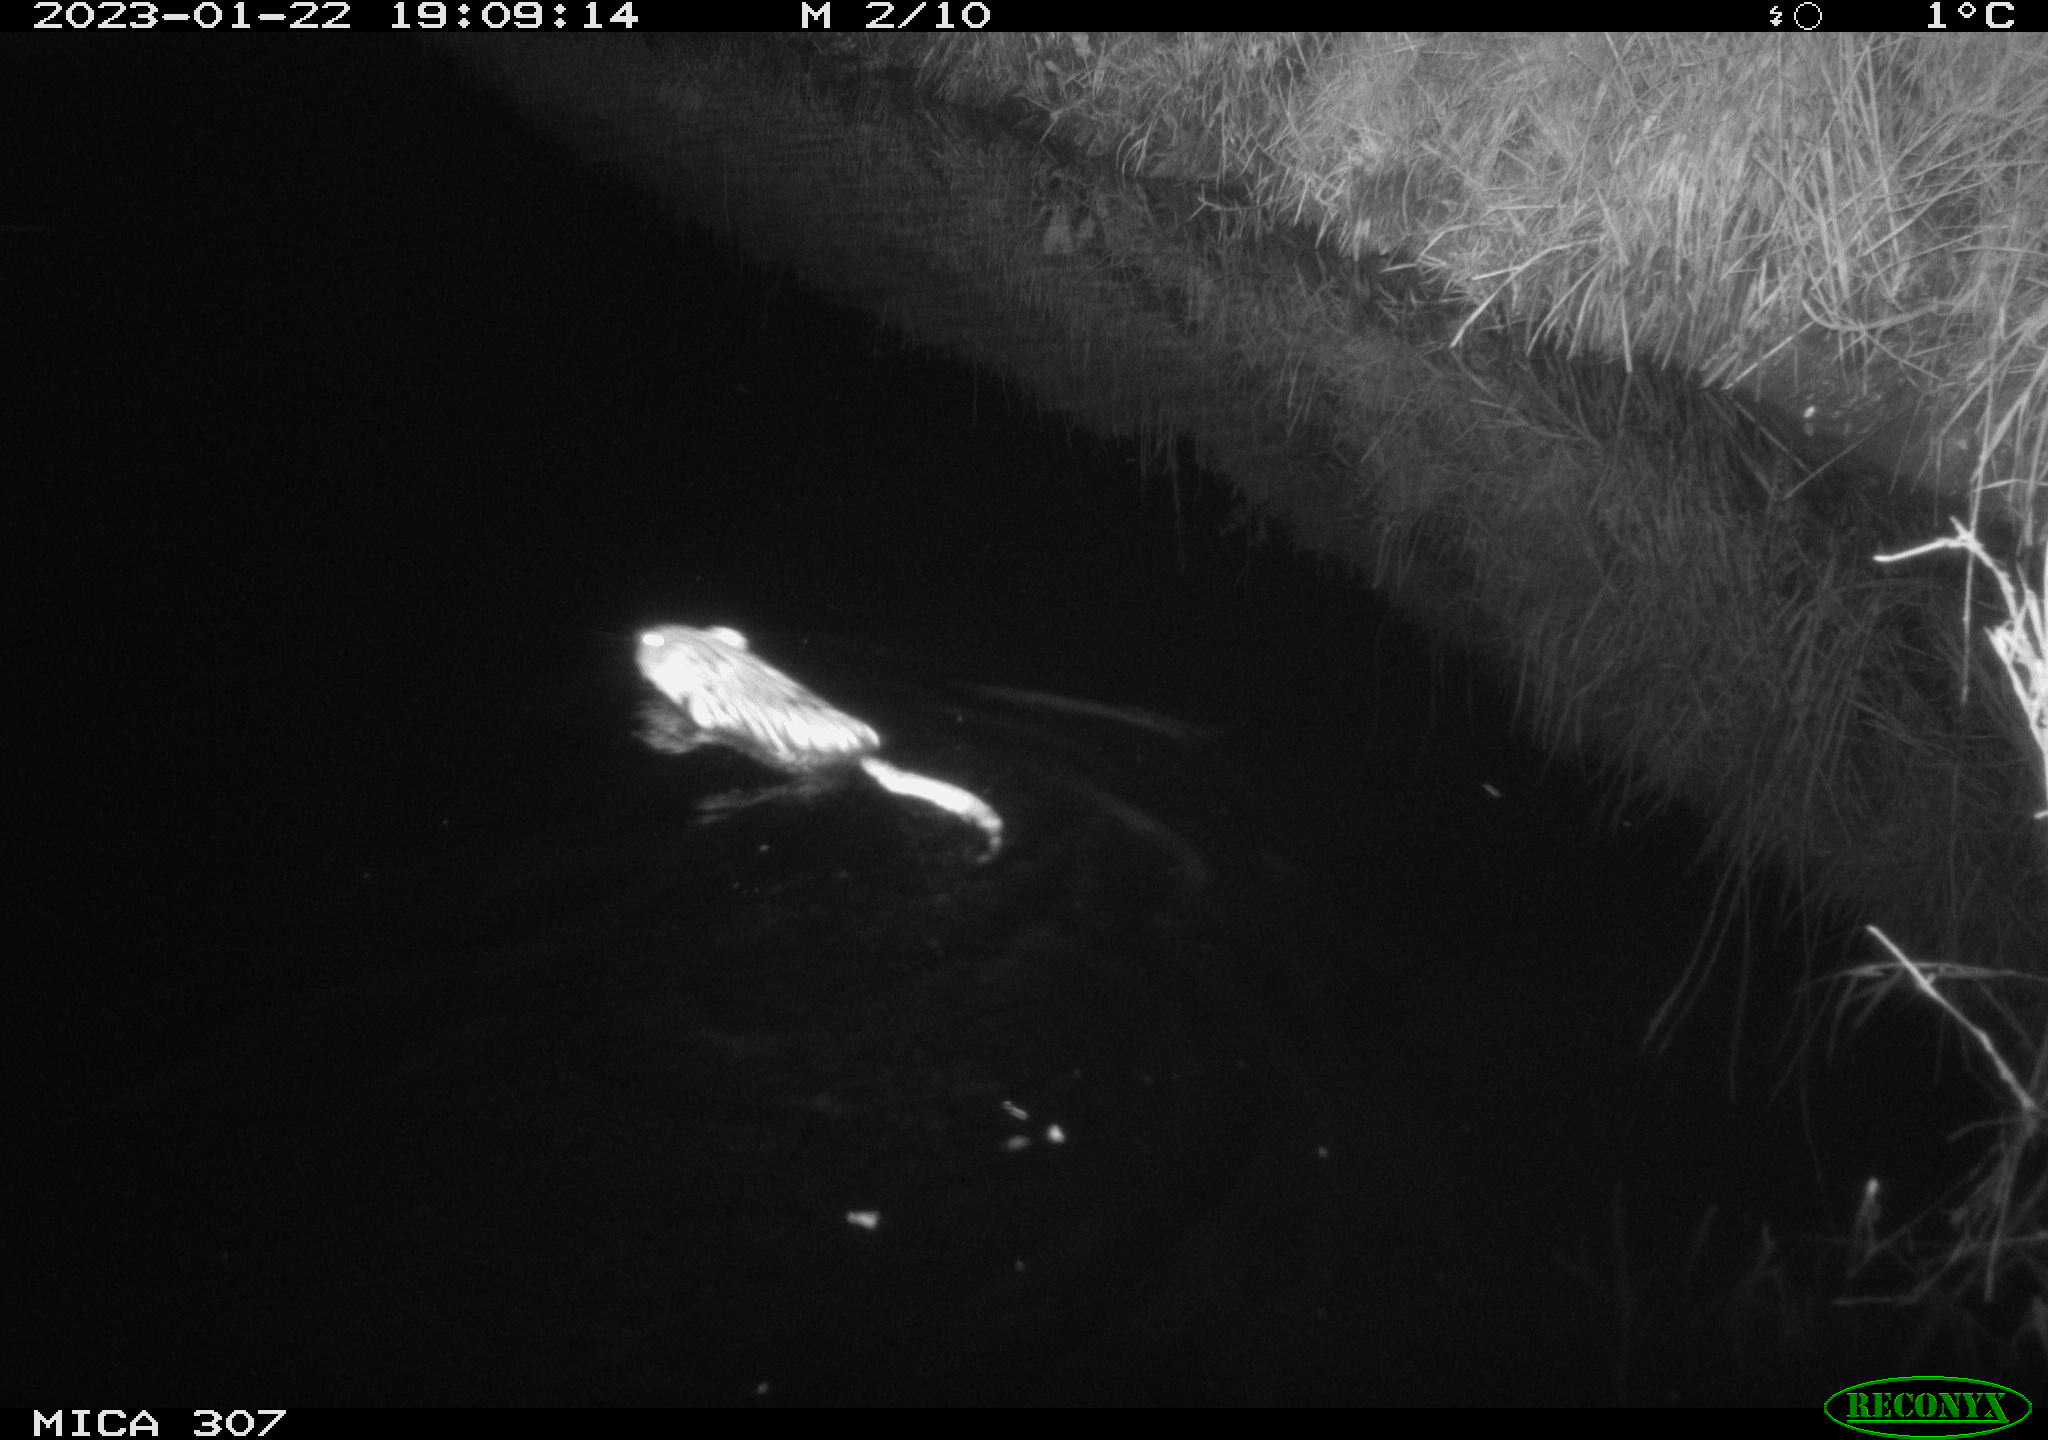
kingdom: Animalia
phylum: Chordata
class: Mammalia
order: Rodentia
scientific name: Rodentia
